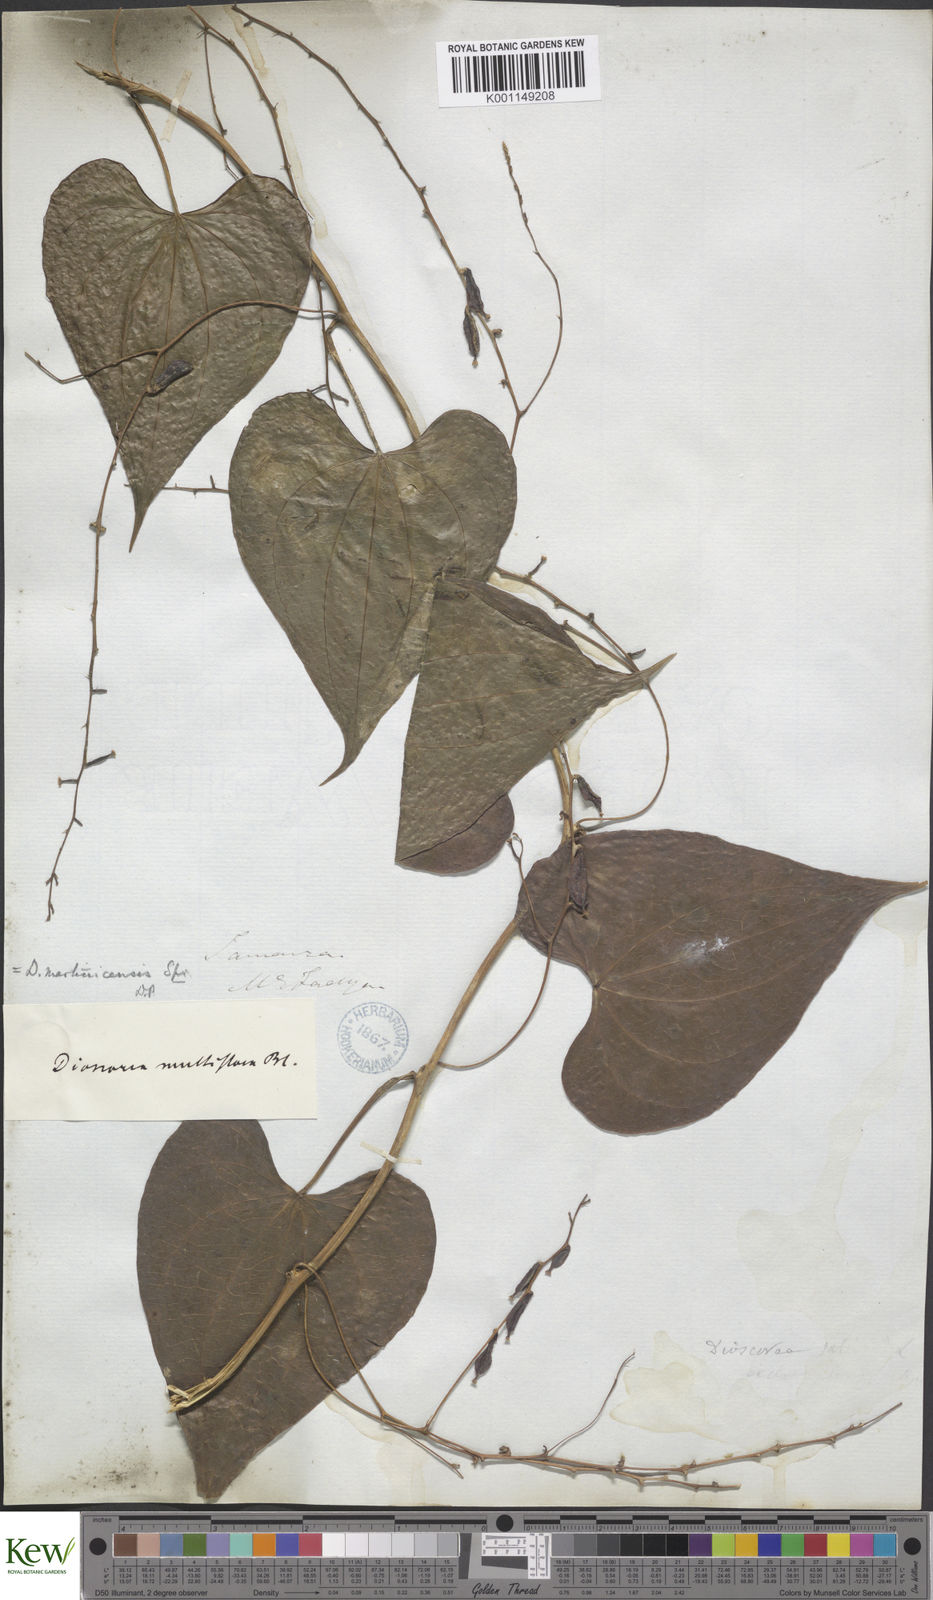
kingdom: Plantae
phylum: Tracheophyta
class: Liliopsida
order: Dioscoreales
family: Dioscoreaceae
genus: Dioscorea
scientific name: Dioscorea
